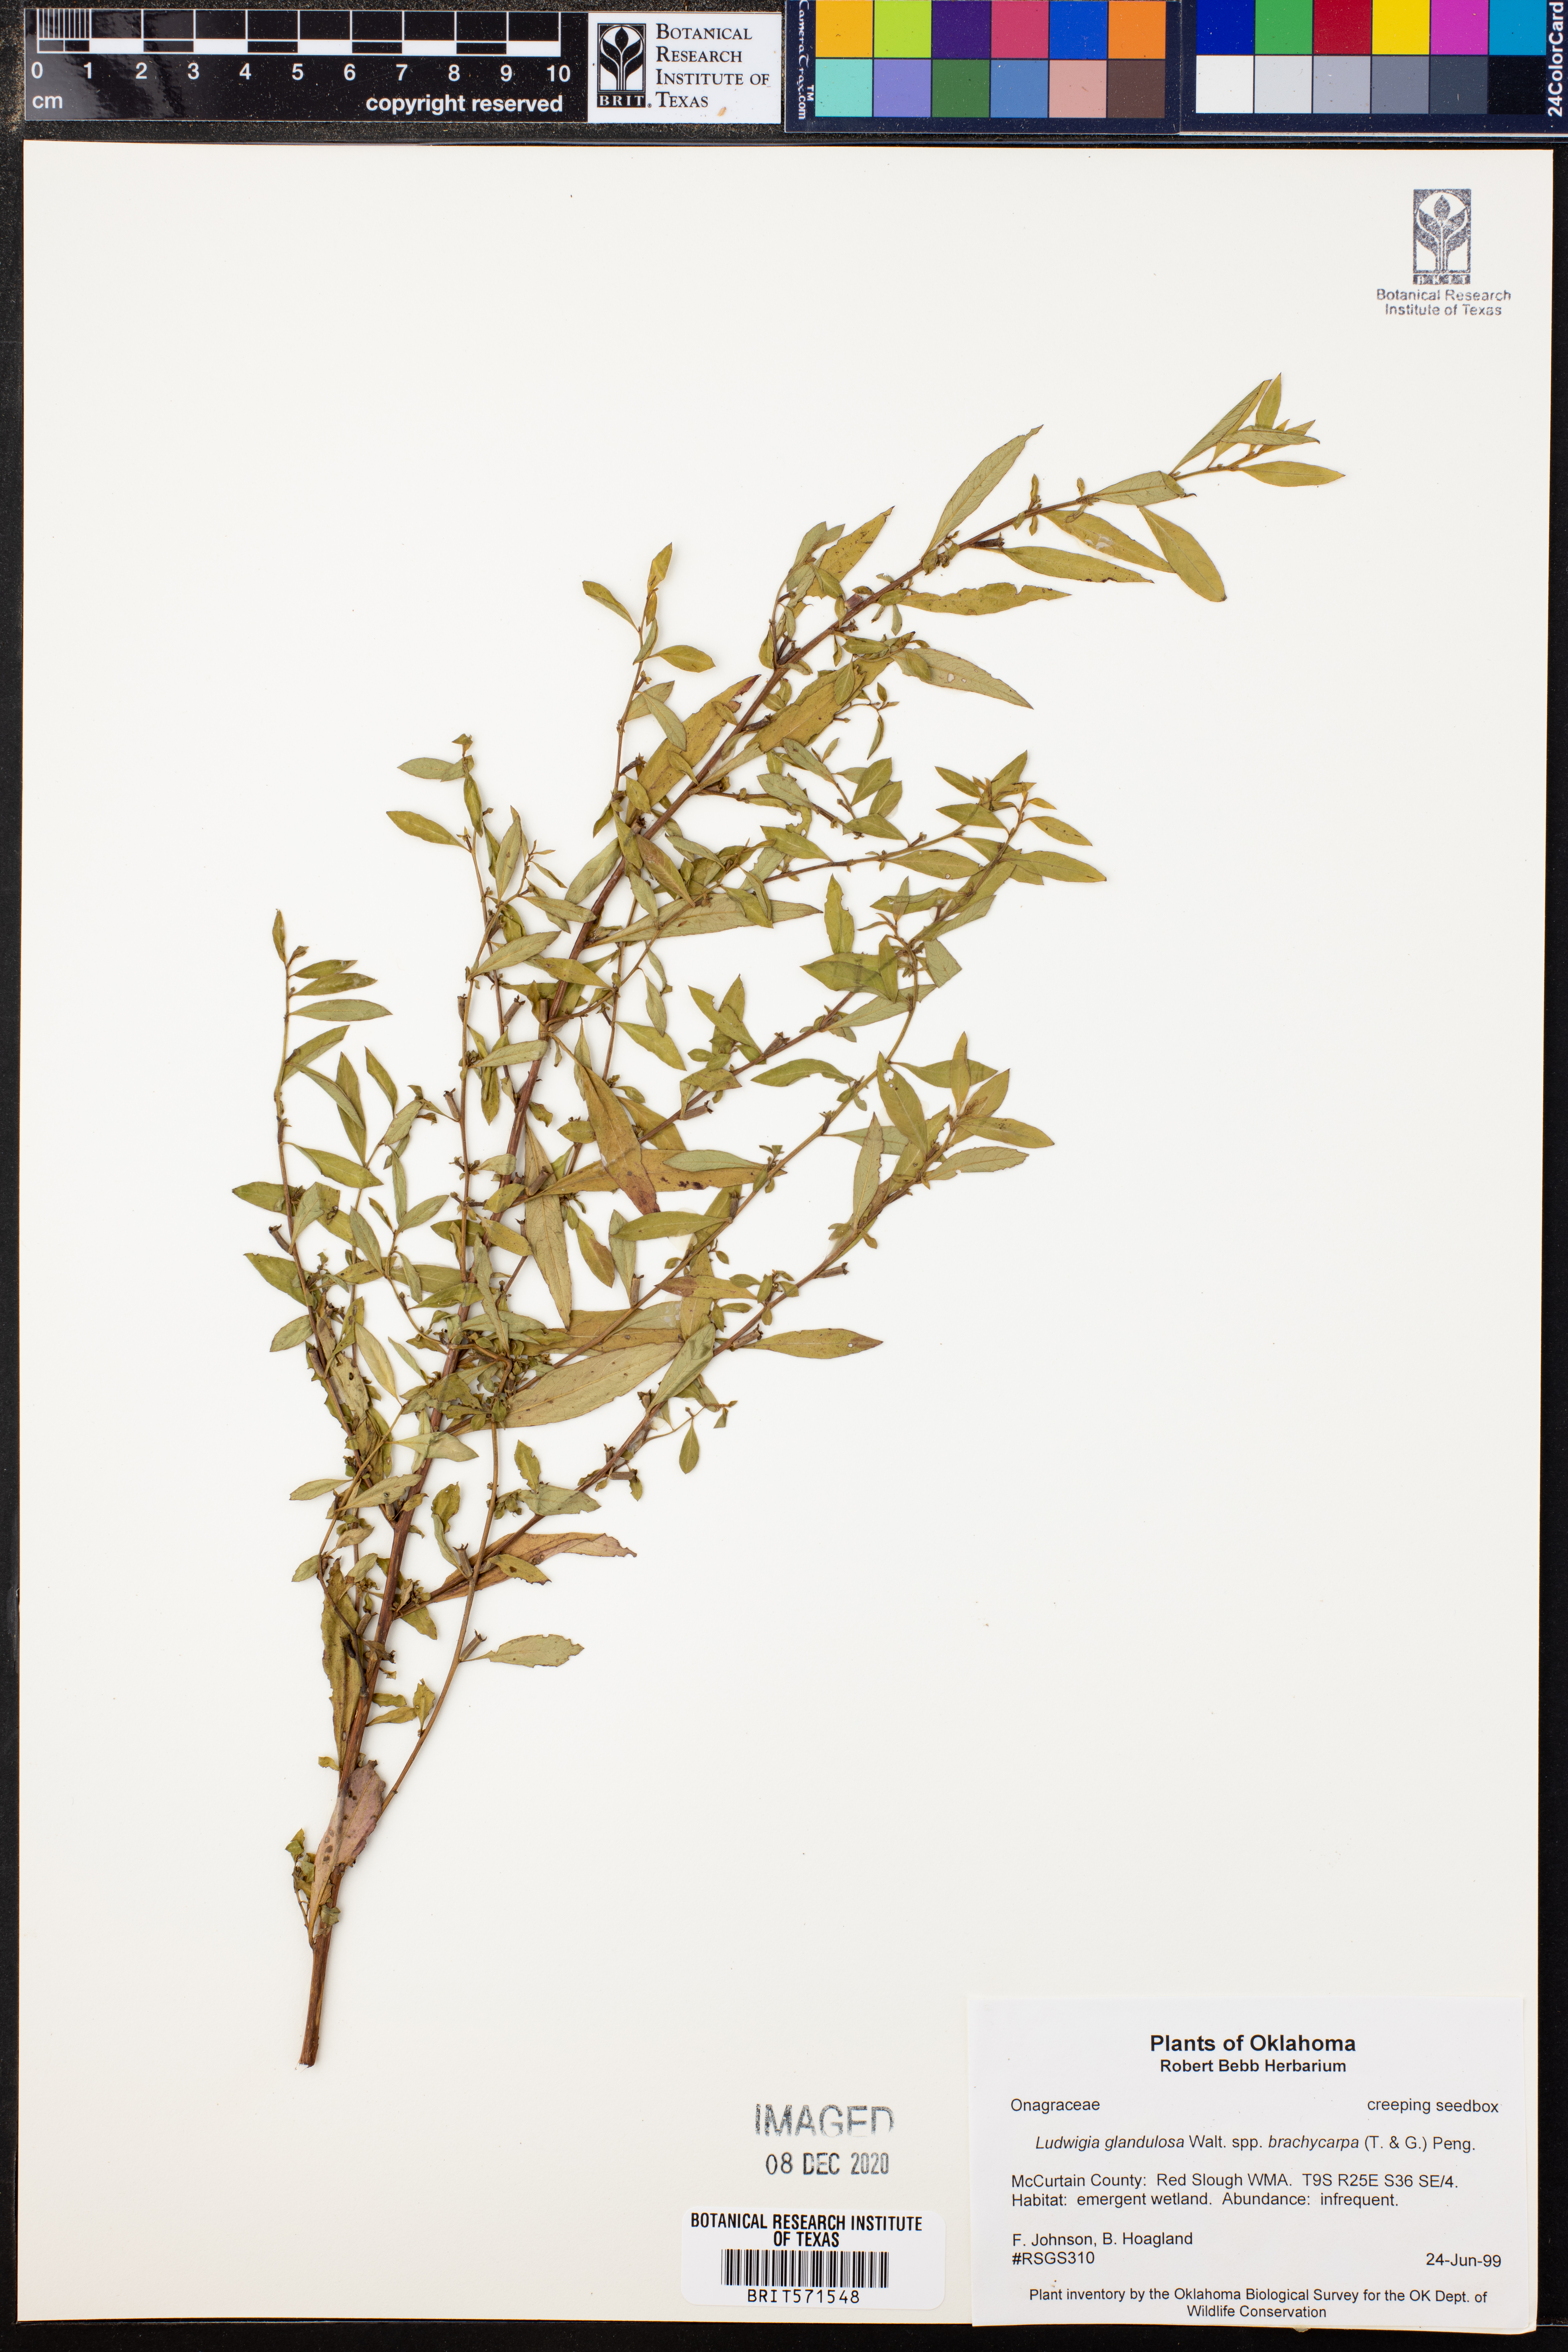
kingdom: Plantae
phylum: Tracheophyta
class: Magnoliopsida
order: Myrtales
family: Onagraceae
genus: Ludwigia
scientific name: Ludwigia glandulosa
